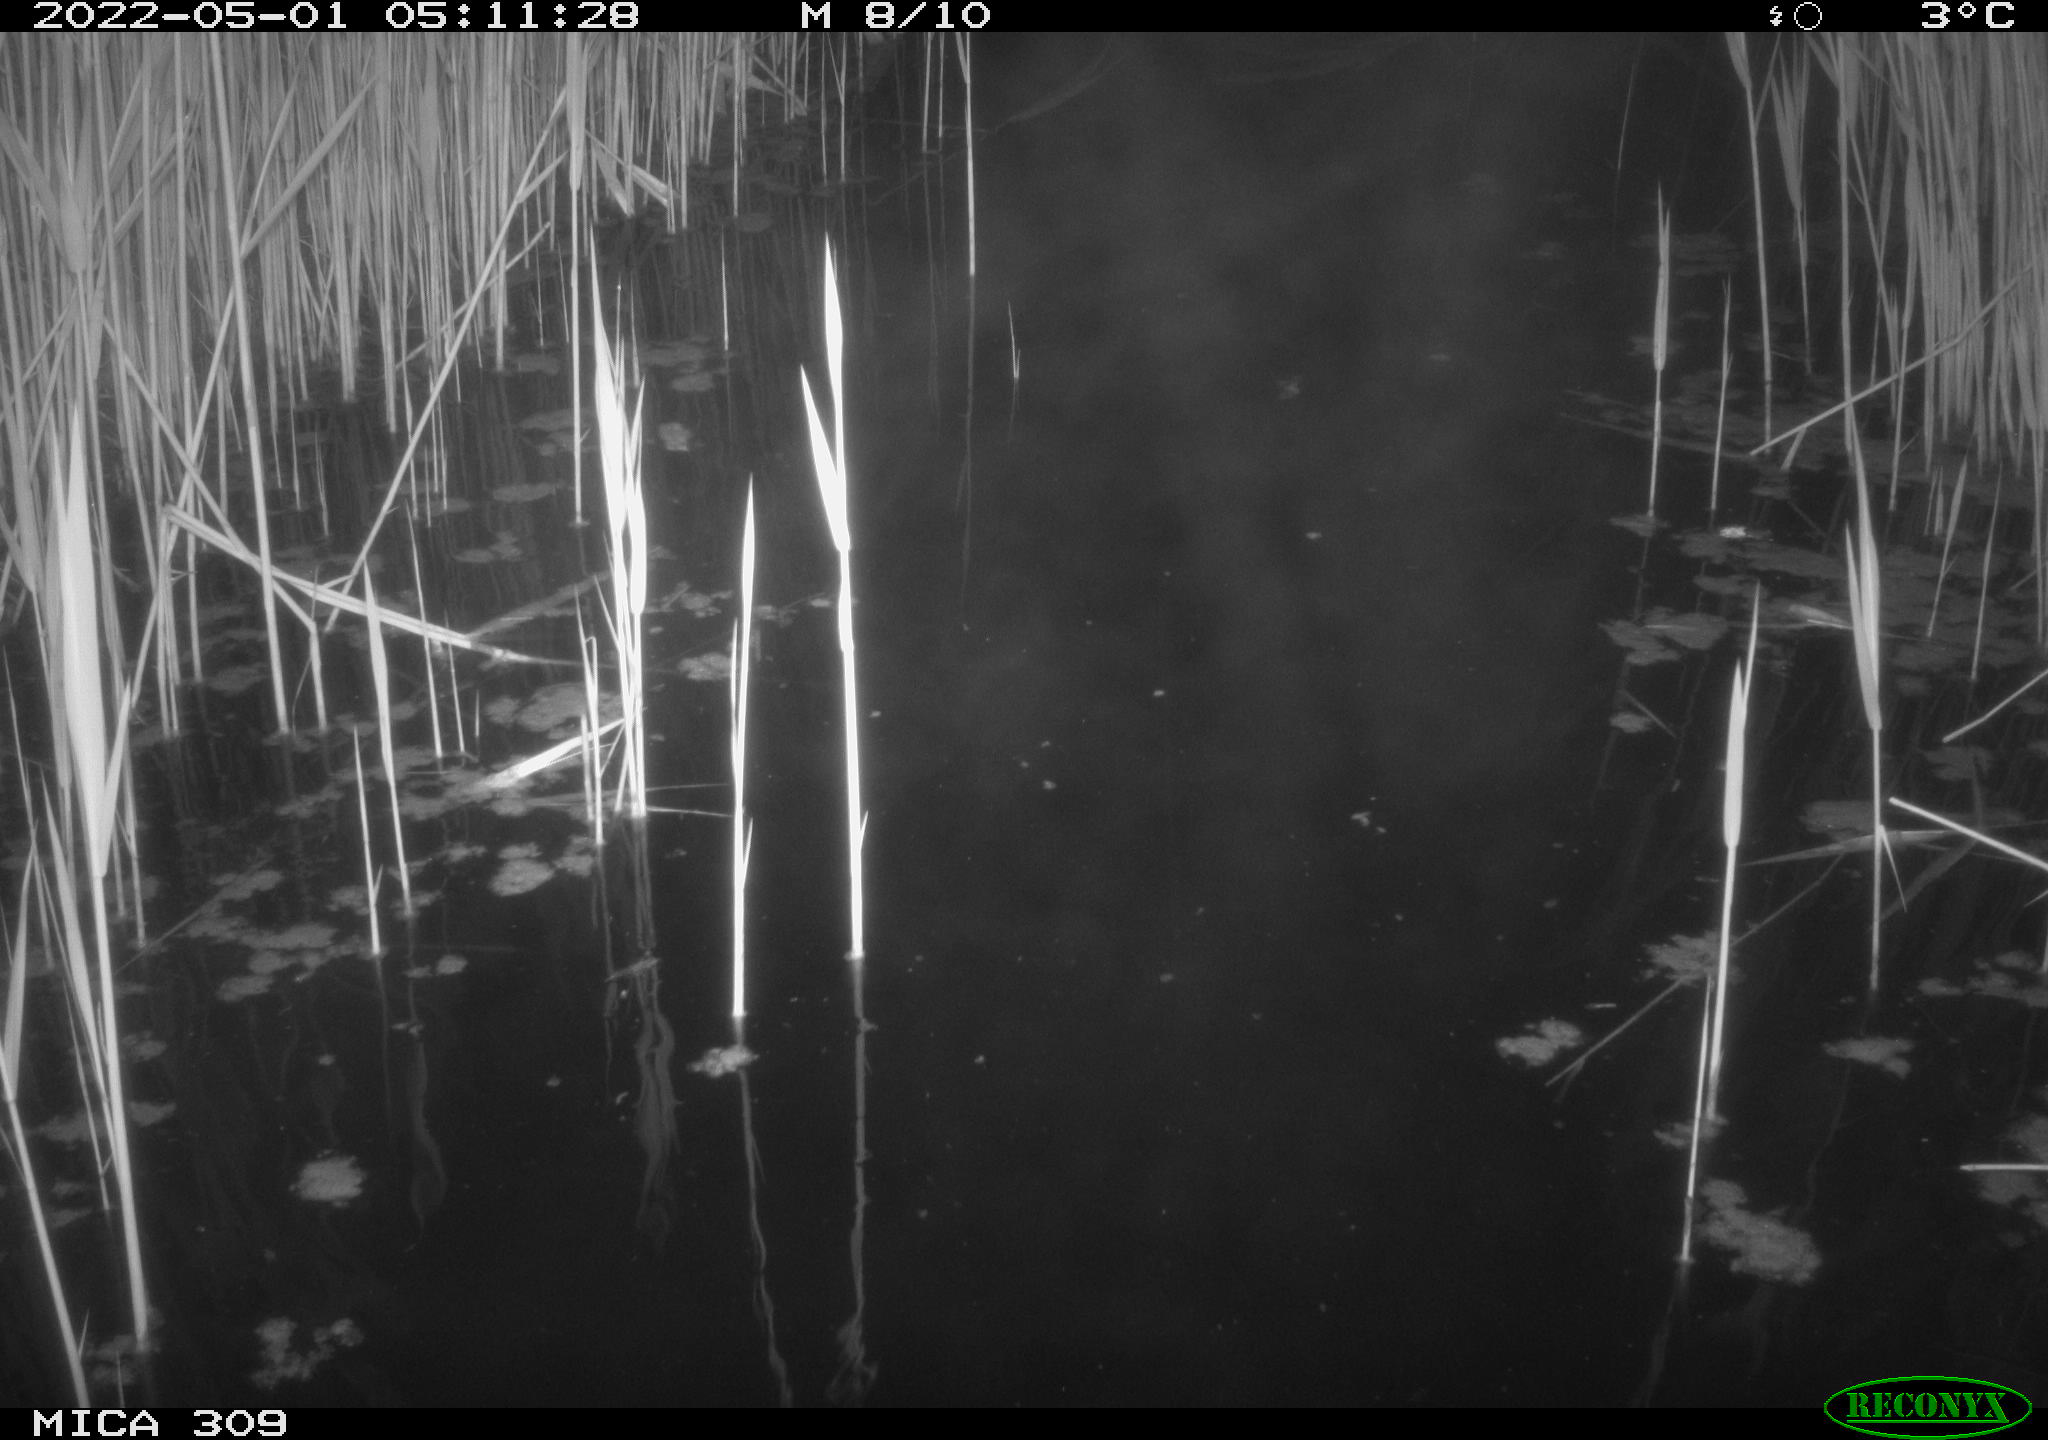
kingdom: Animalia
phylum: Chordata
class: Aves
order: Anseriformes
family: Anatidae
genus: Anas
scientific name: Anas platyrhynchos
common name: Mallard
